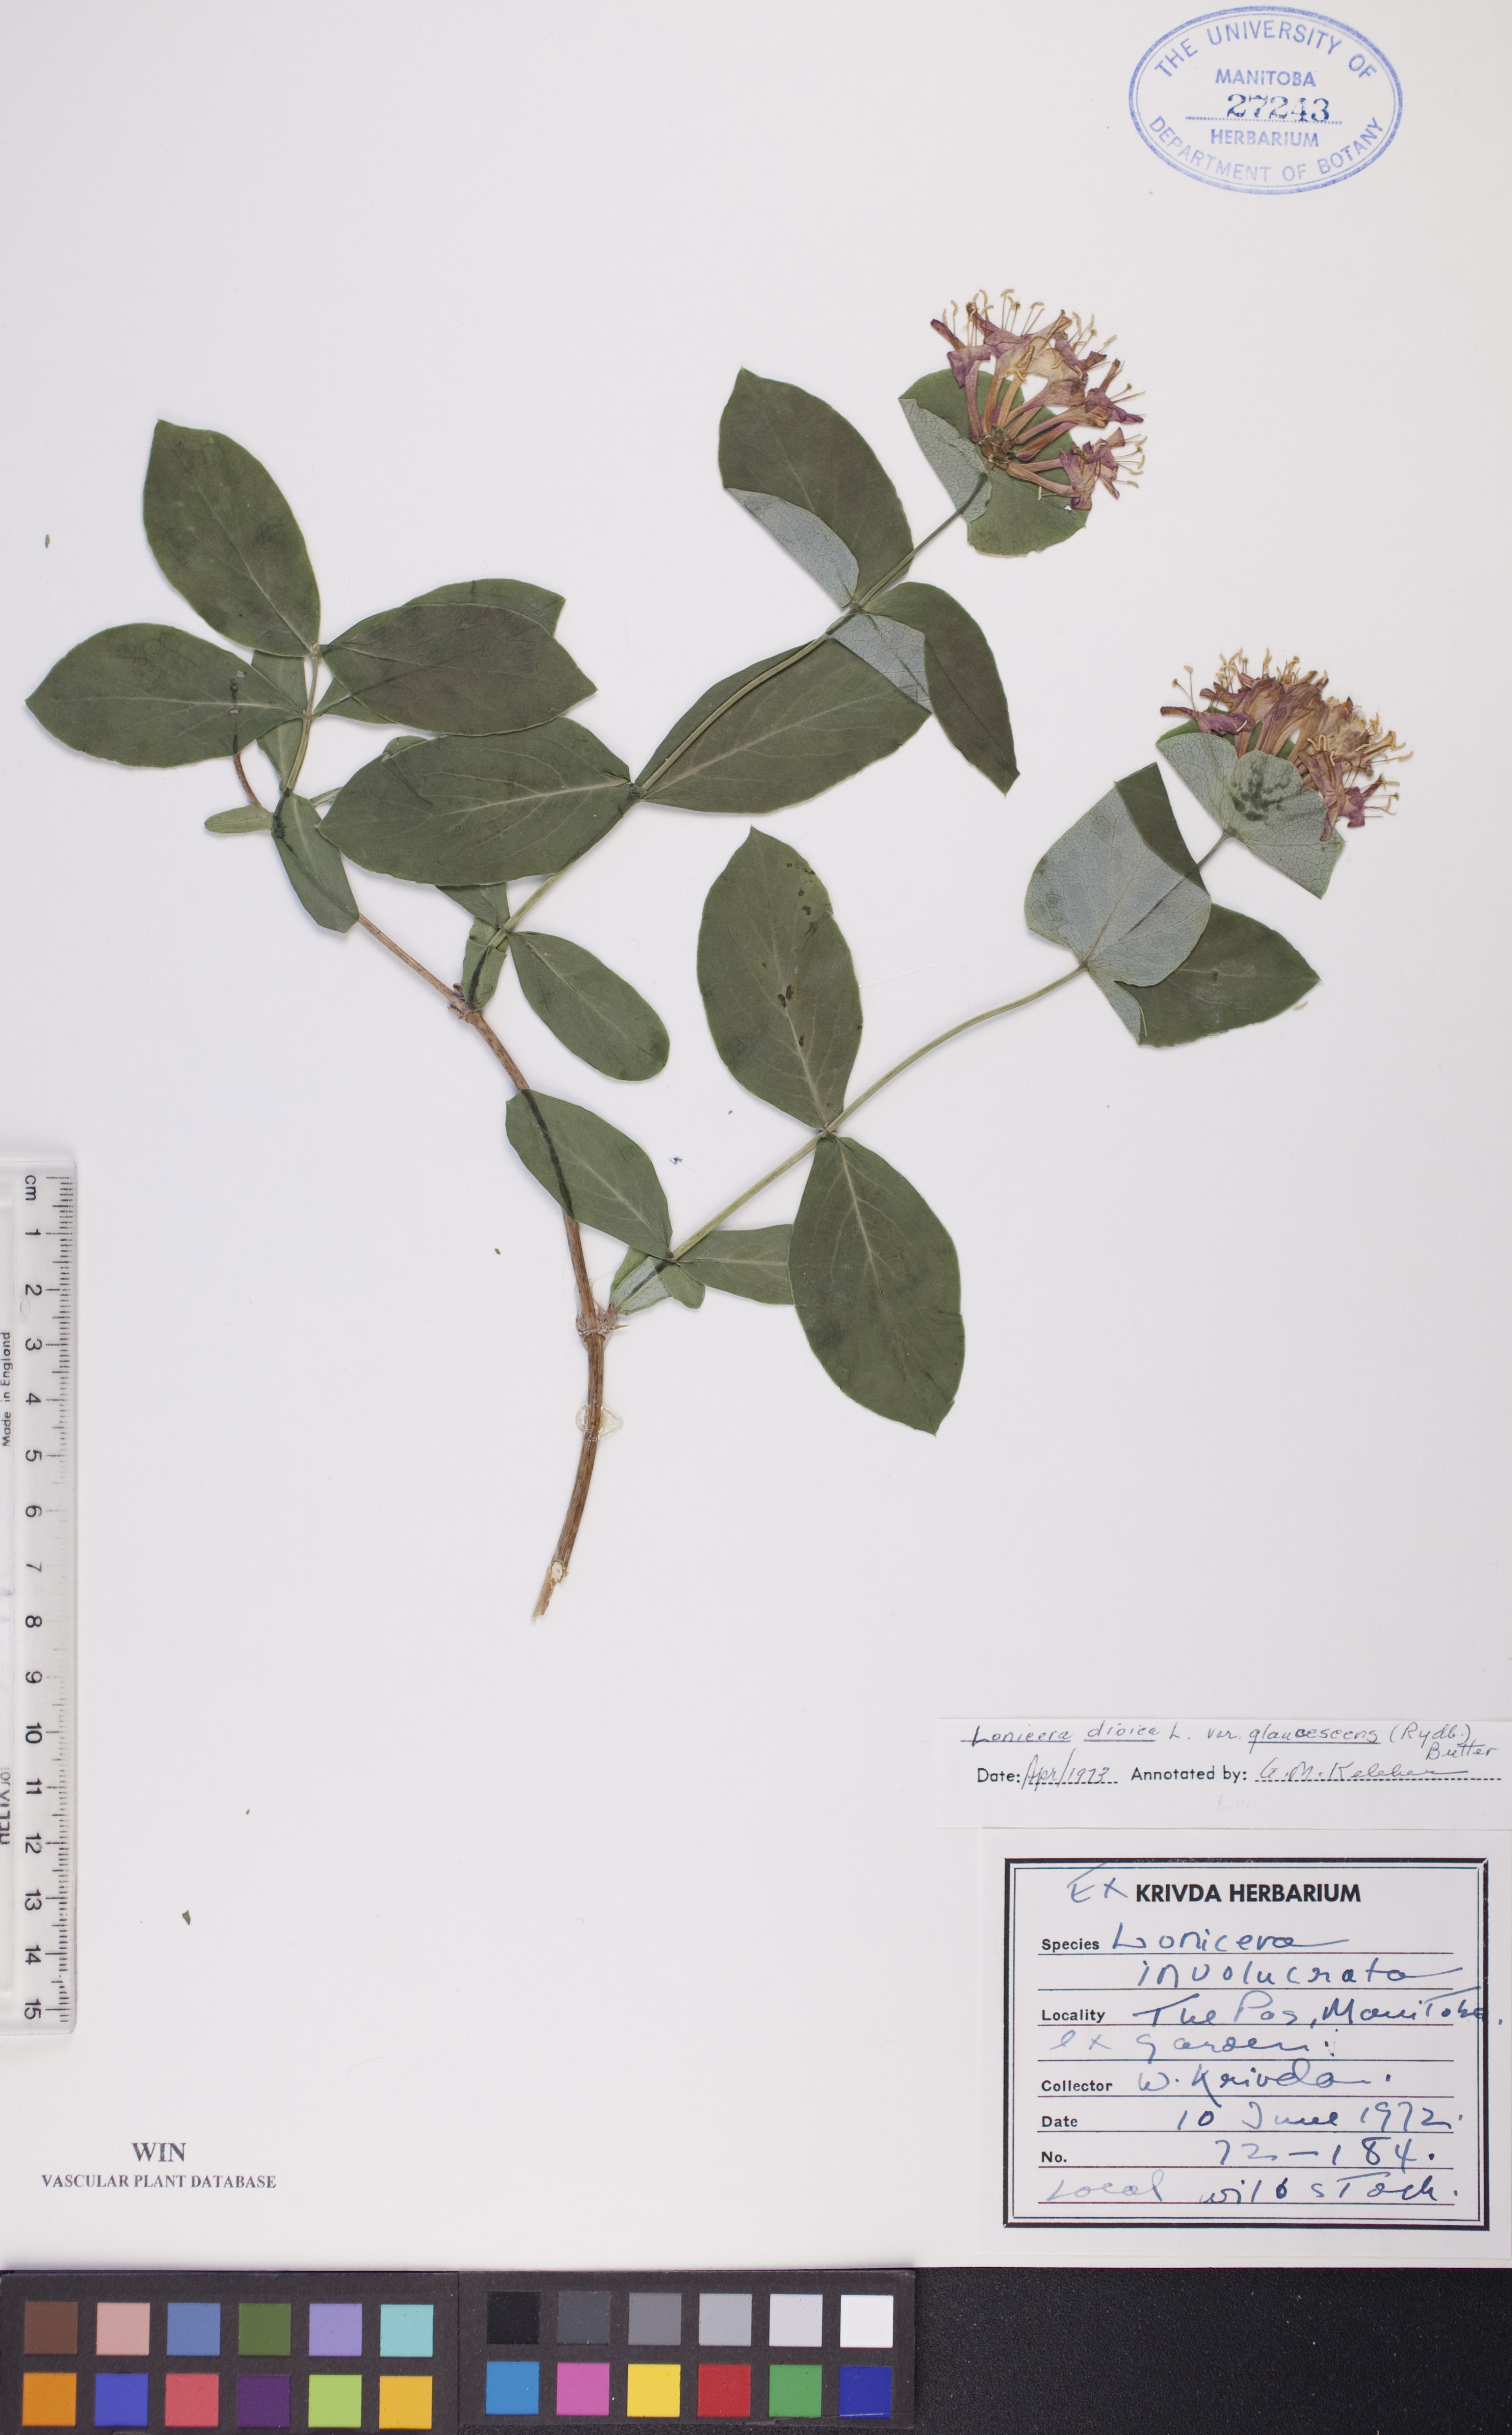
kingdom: Plantae
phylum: Tracheophyta
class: Magnoliopsida
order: Dipsacales
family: Caprifoliaceae
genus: Lonicera
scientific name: Lonicera dioica
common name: Limber honeysuckle
